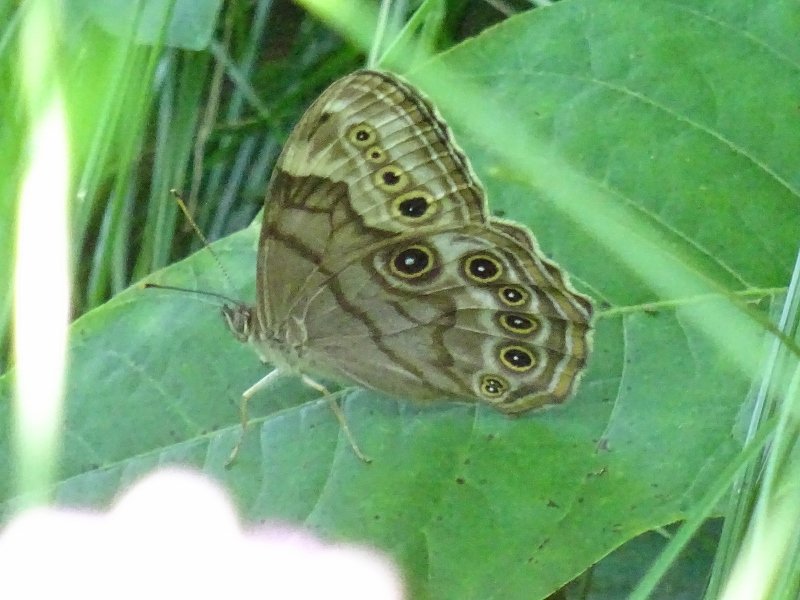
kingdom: Animalia
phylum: Arthropoda
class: Insecta
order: Lepidoptera
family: Nymphalidae
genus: Lethe
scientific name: Lethe anthedon
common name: Northern Pearly-Eye
